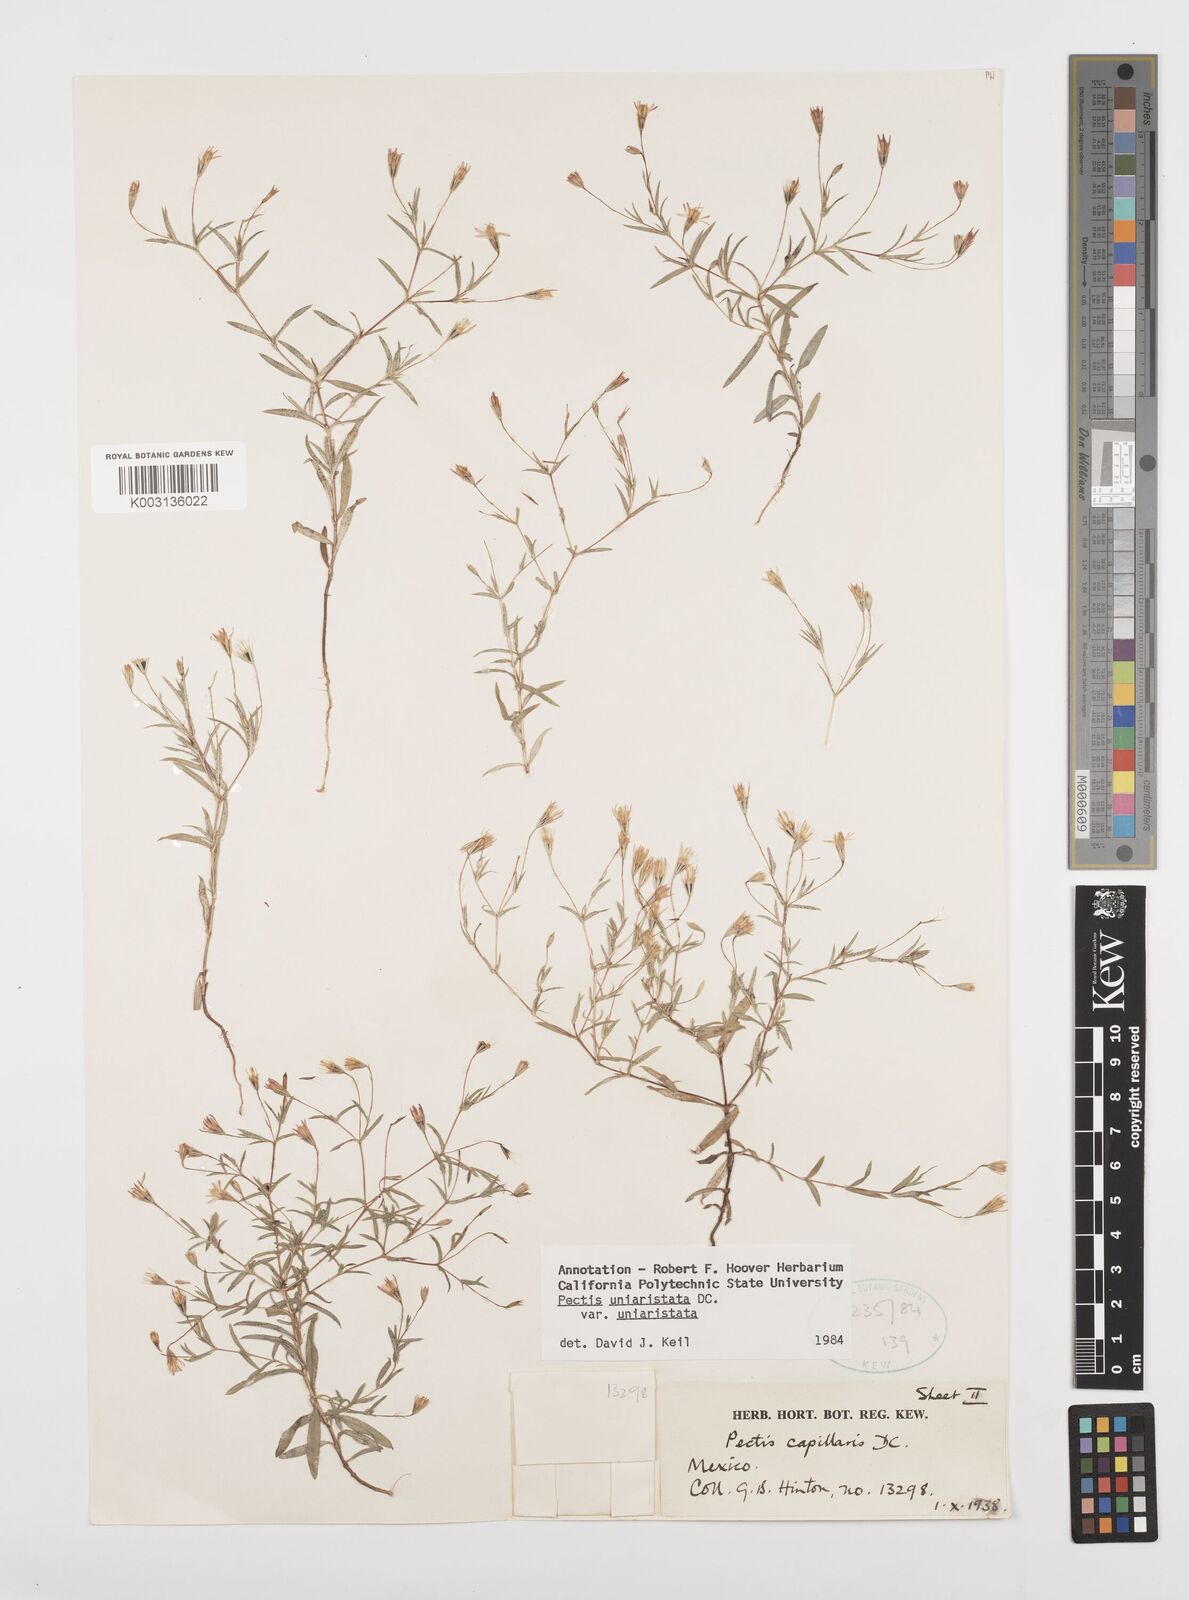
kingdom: Plantae
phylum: Tracheophyta
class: Magnoliopsida
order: Asterales
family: Asteraceae
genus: Pectis
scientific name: Pectis uniaristata
